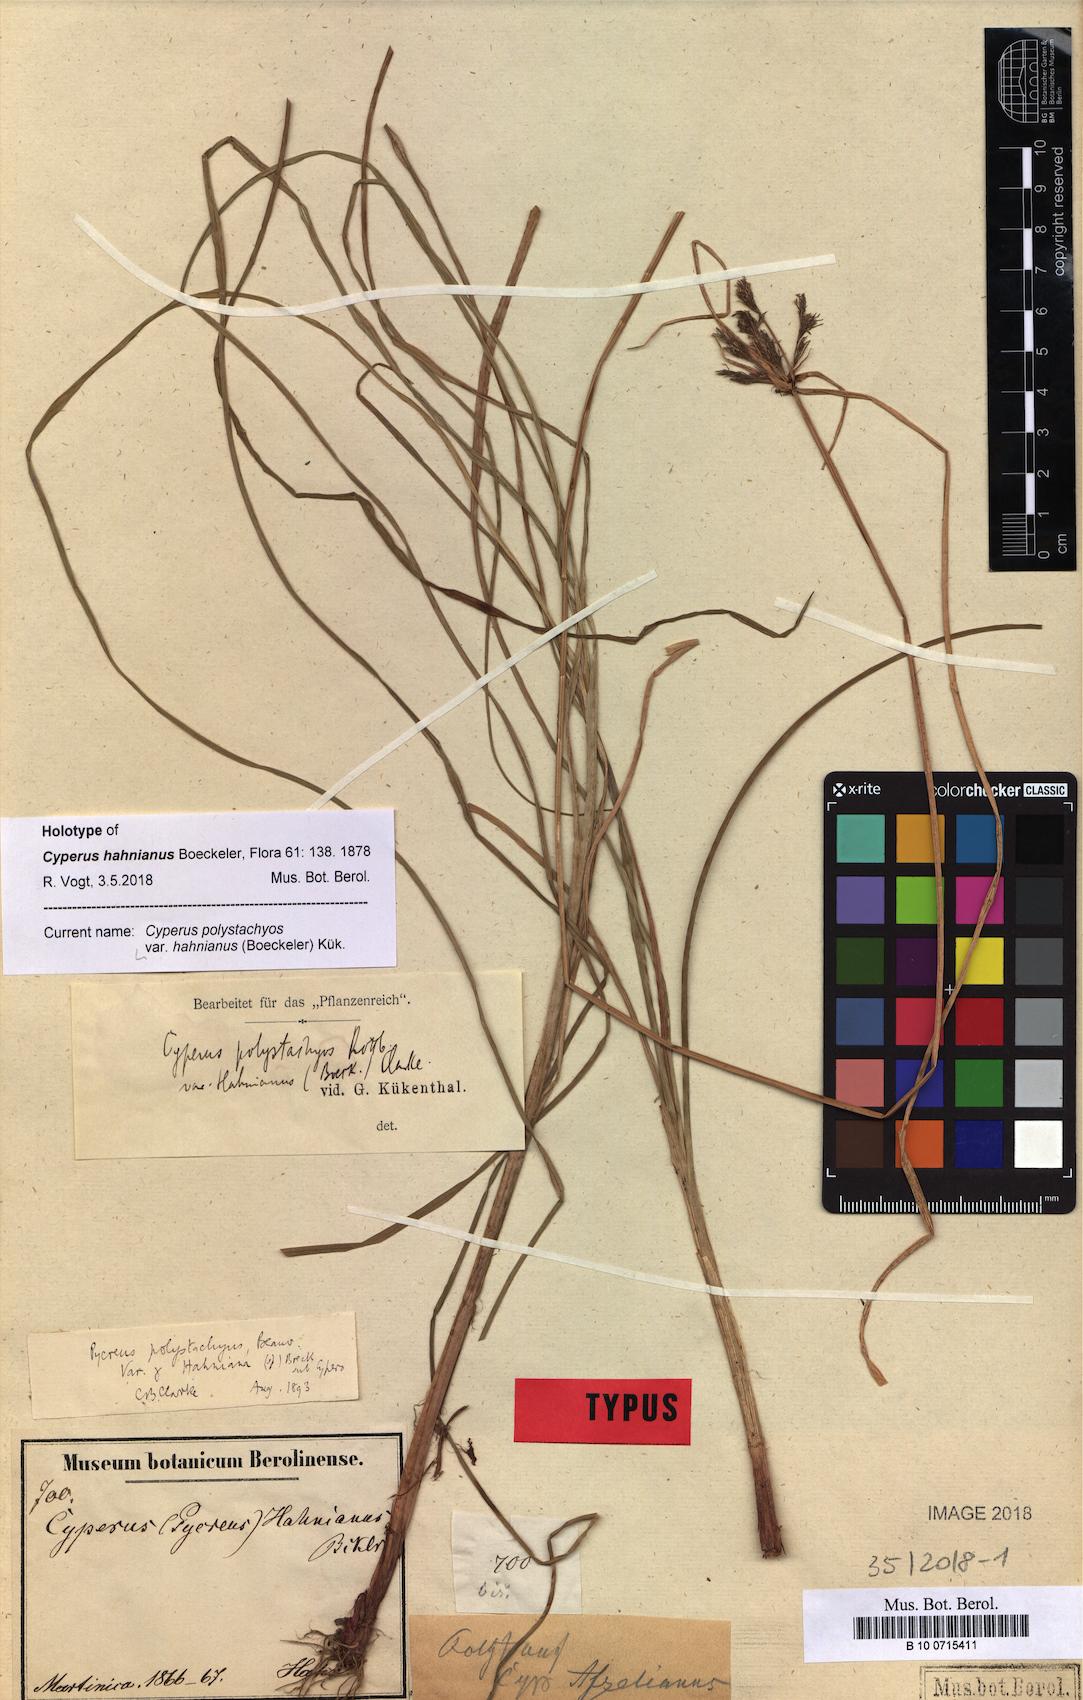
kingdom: Plantae
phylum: Tracheophyta
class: Liliopsida
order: Poales
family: Cyperaceae
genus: Cyperus
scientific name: Cyperus polystachyos
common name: Bunchy flat sedge
